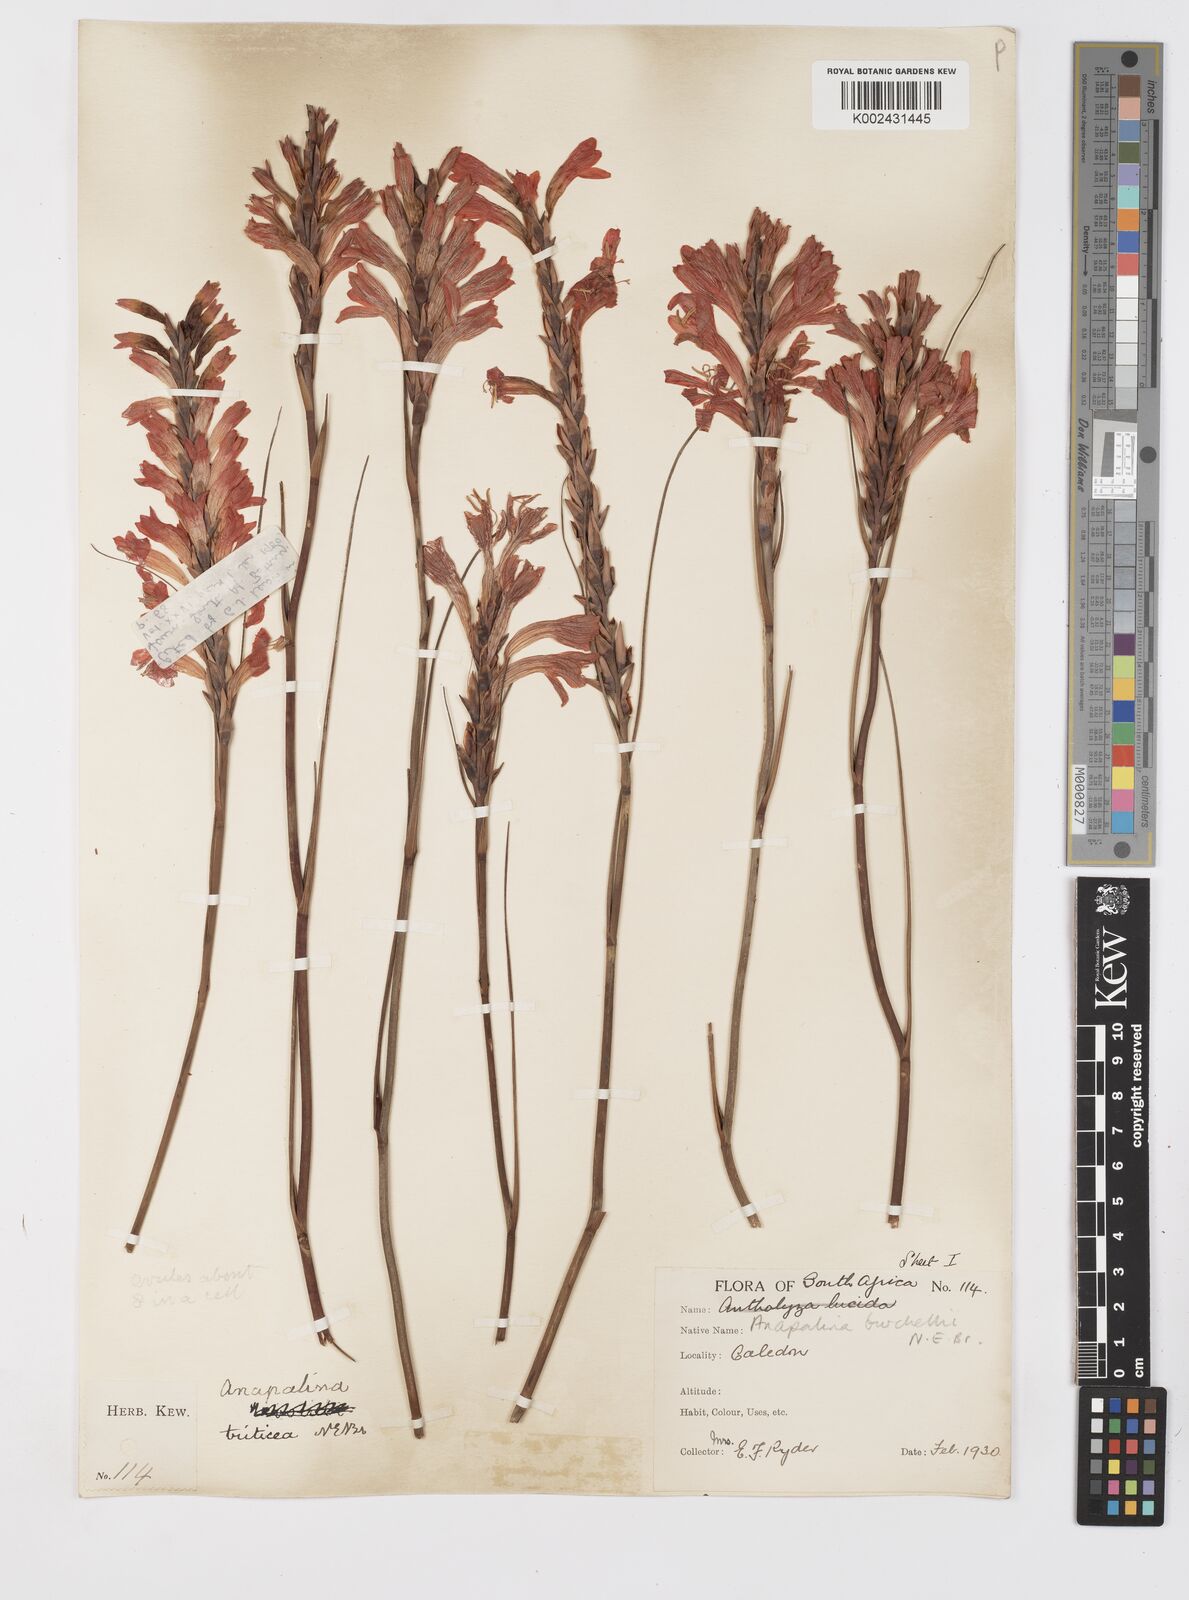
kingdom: Plantae
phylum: Tracheophyta
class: Liliopsida
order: Asparagales
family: Iridaceae
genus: Tritoniopsis
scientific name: Tritoniopsis triticea
